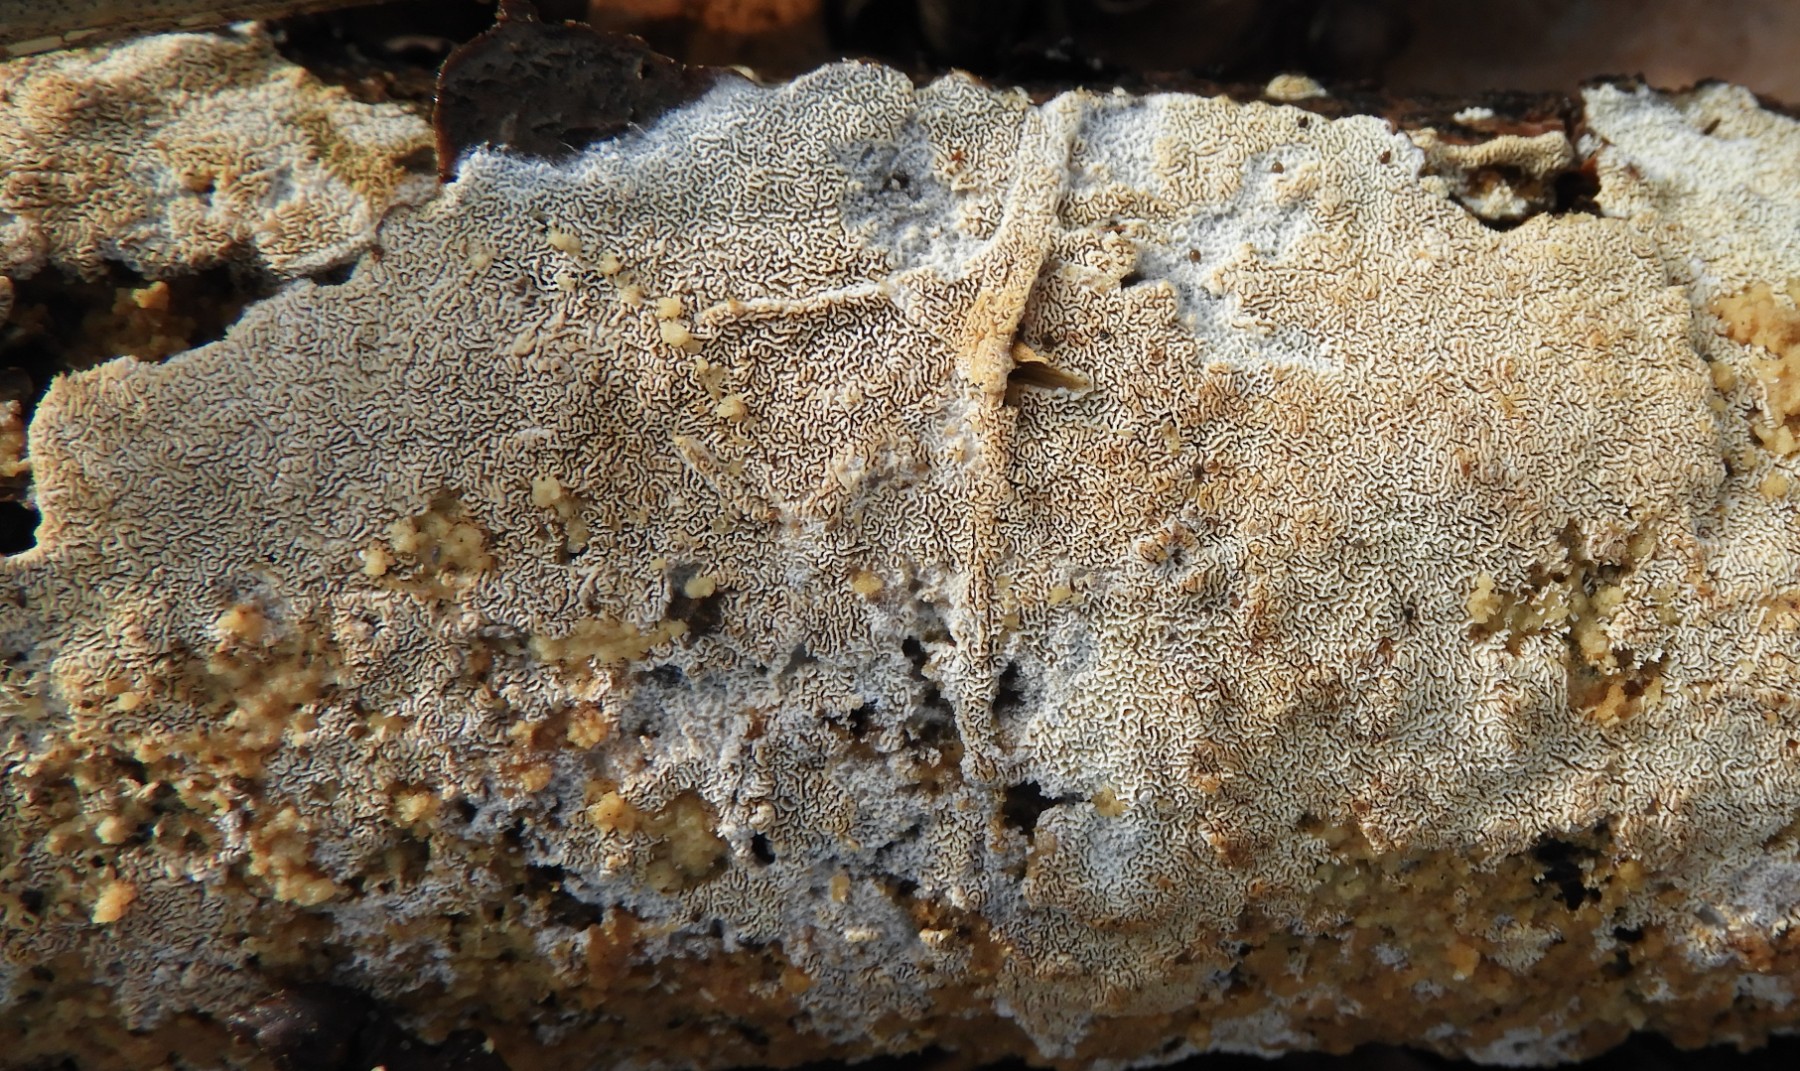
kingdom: Fungi
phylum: Basidiomycota
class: Agaricomycetes
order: Hymenochaetales
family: Schizoporaceae
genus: Xylodon
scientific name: Xylodon subtropicus
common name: labyrint-tandsvamp
